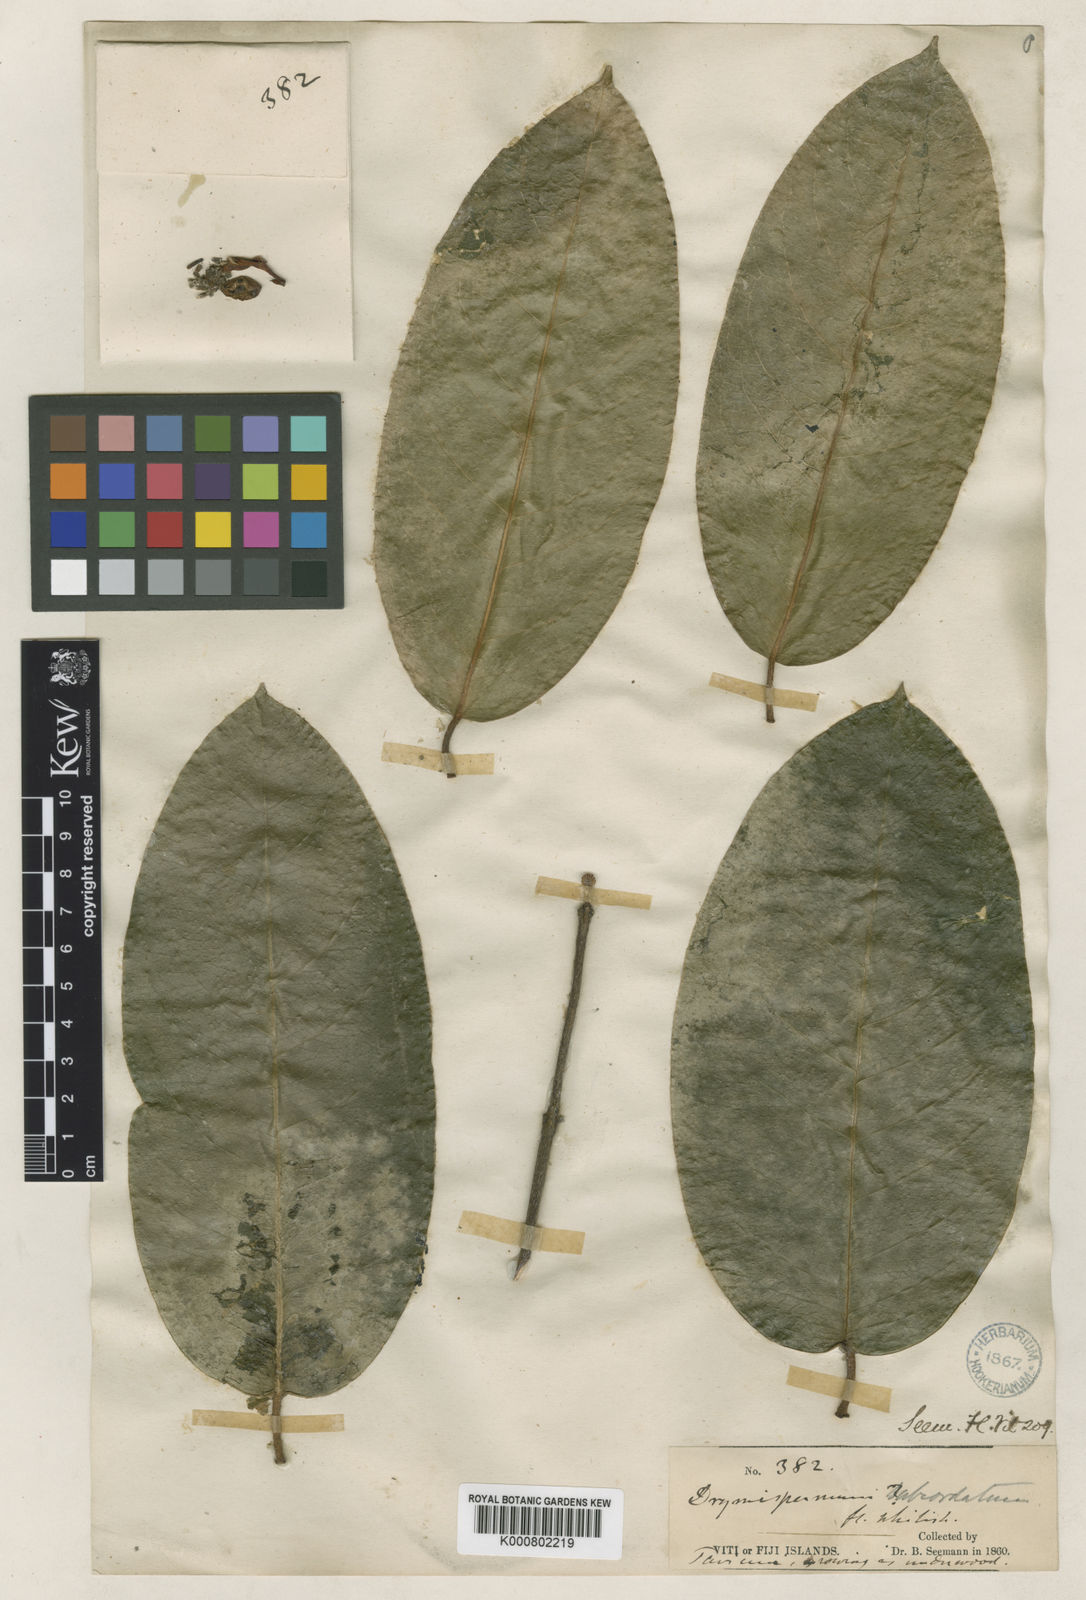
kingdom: Plantae
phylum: Tracheophyta
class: Magnoliopsida
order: Malvales
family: Thymelaeaceae
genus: Phaleria
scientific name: Phaleria acuminata
